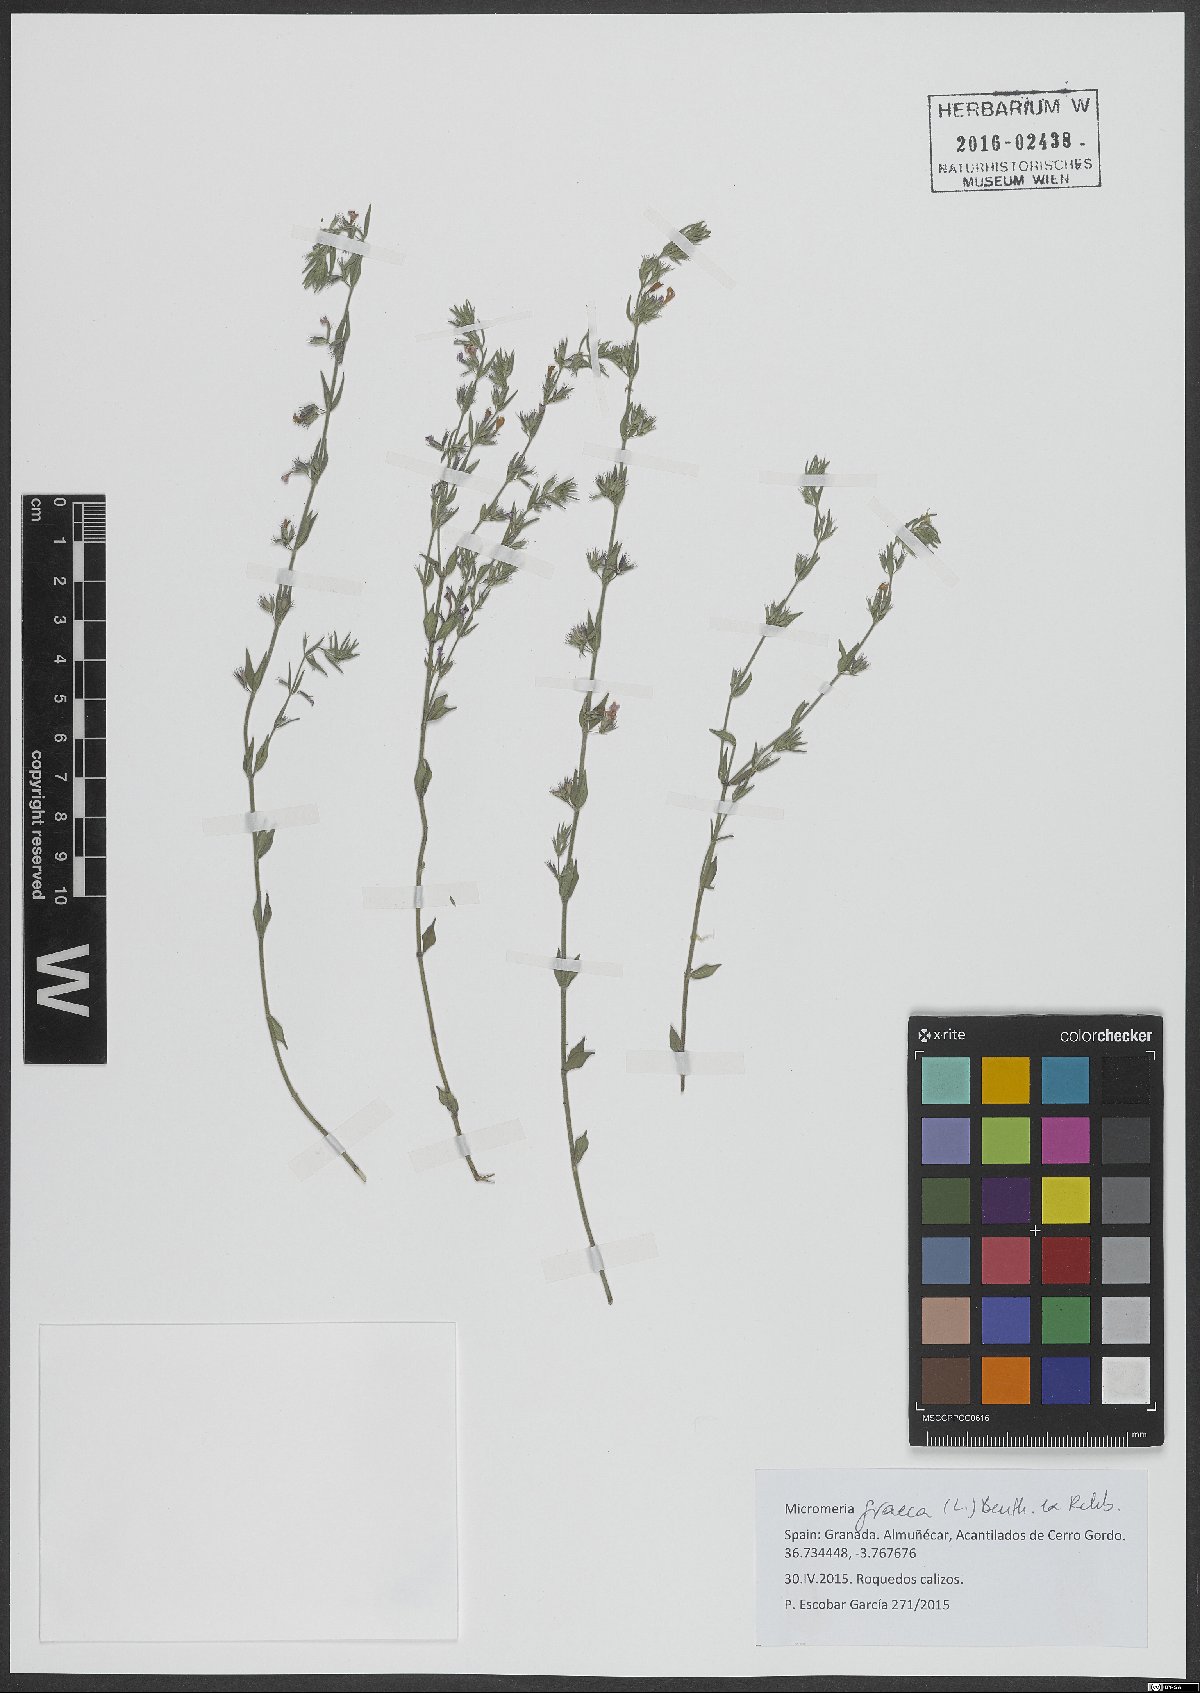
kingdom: Plantae
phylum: Tracheophyta
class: Magnoliopsida
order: Lamiales
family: Lamiaceae
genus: Micromeria
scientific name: Micromeria graeca
